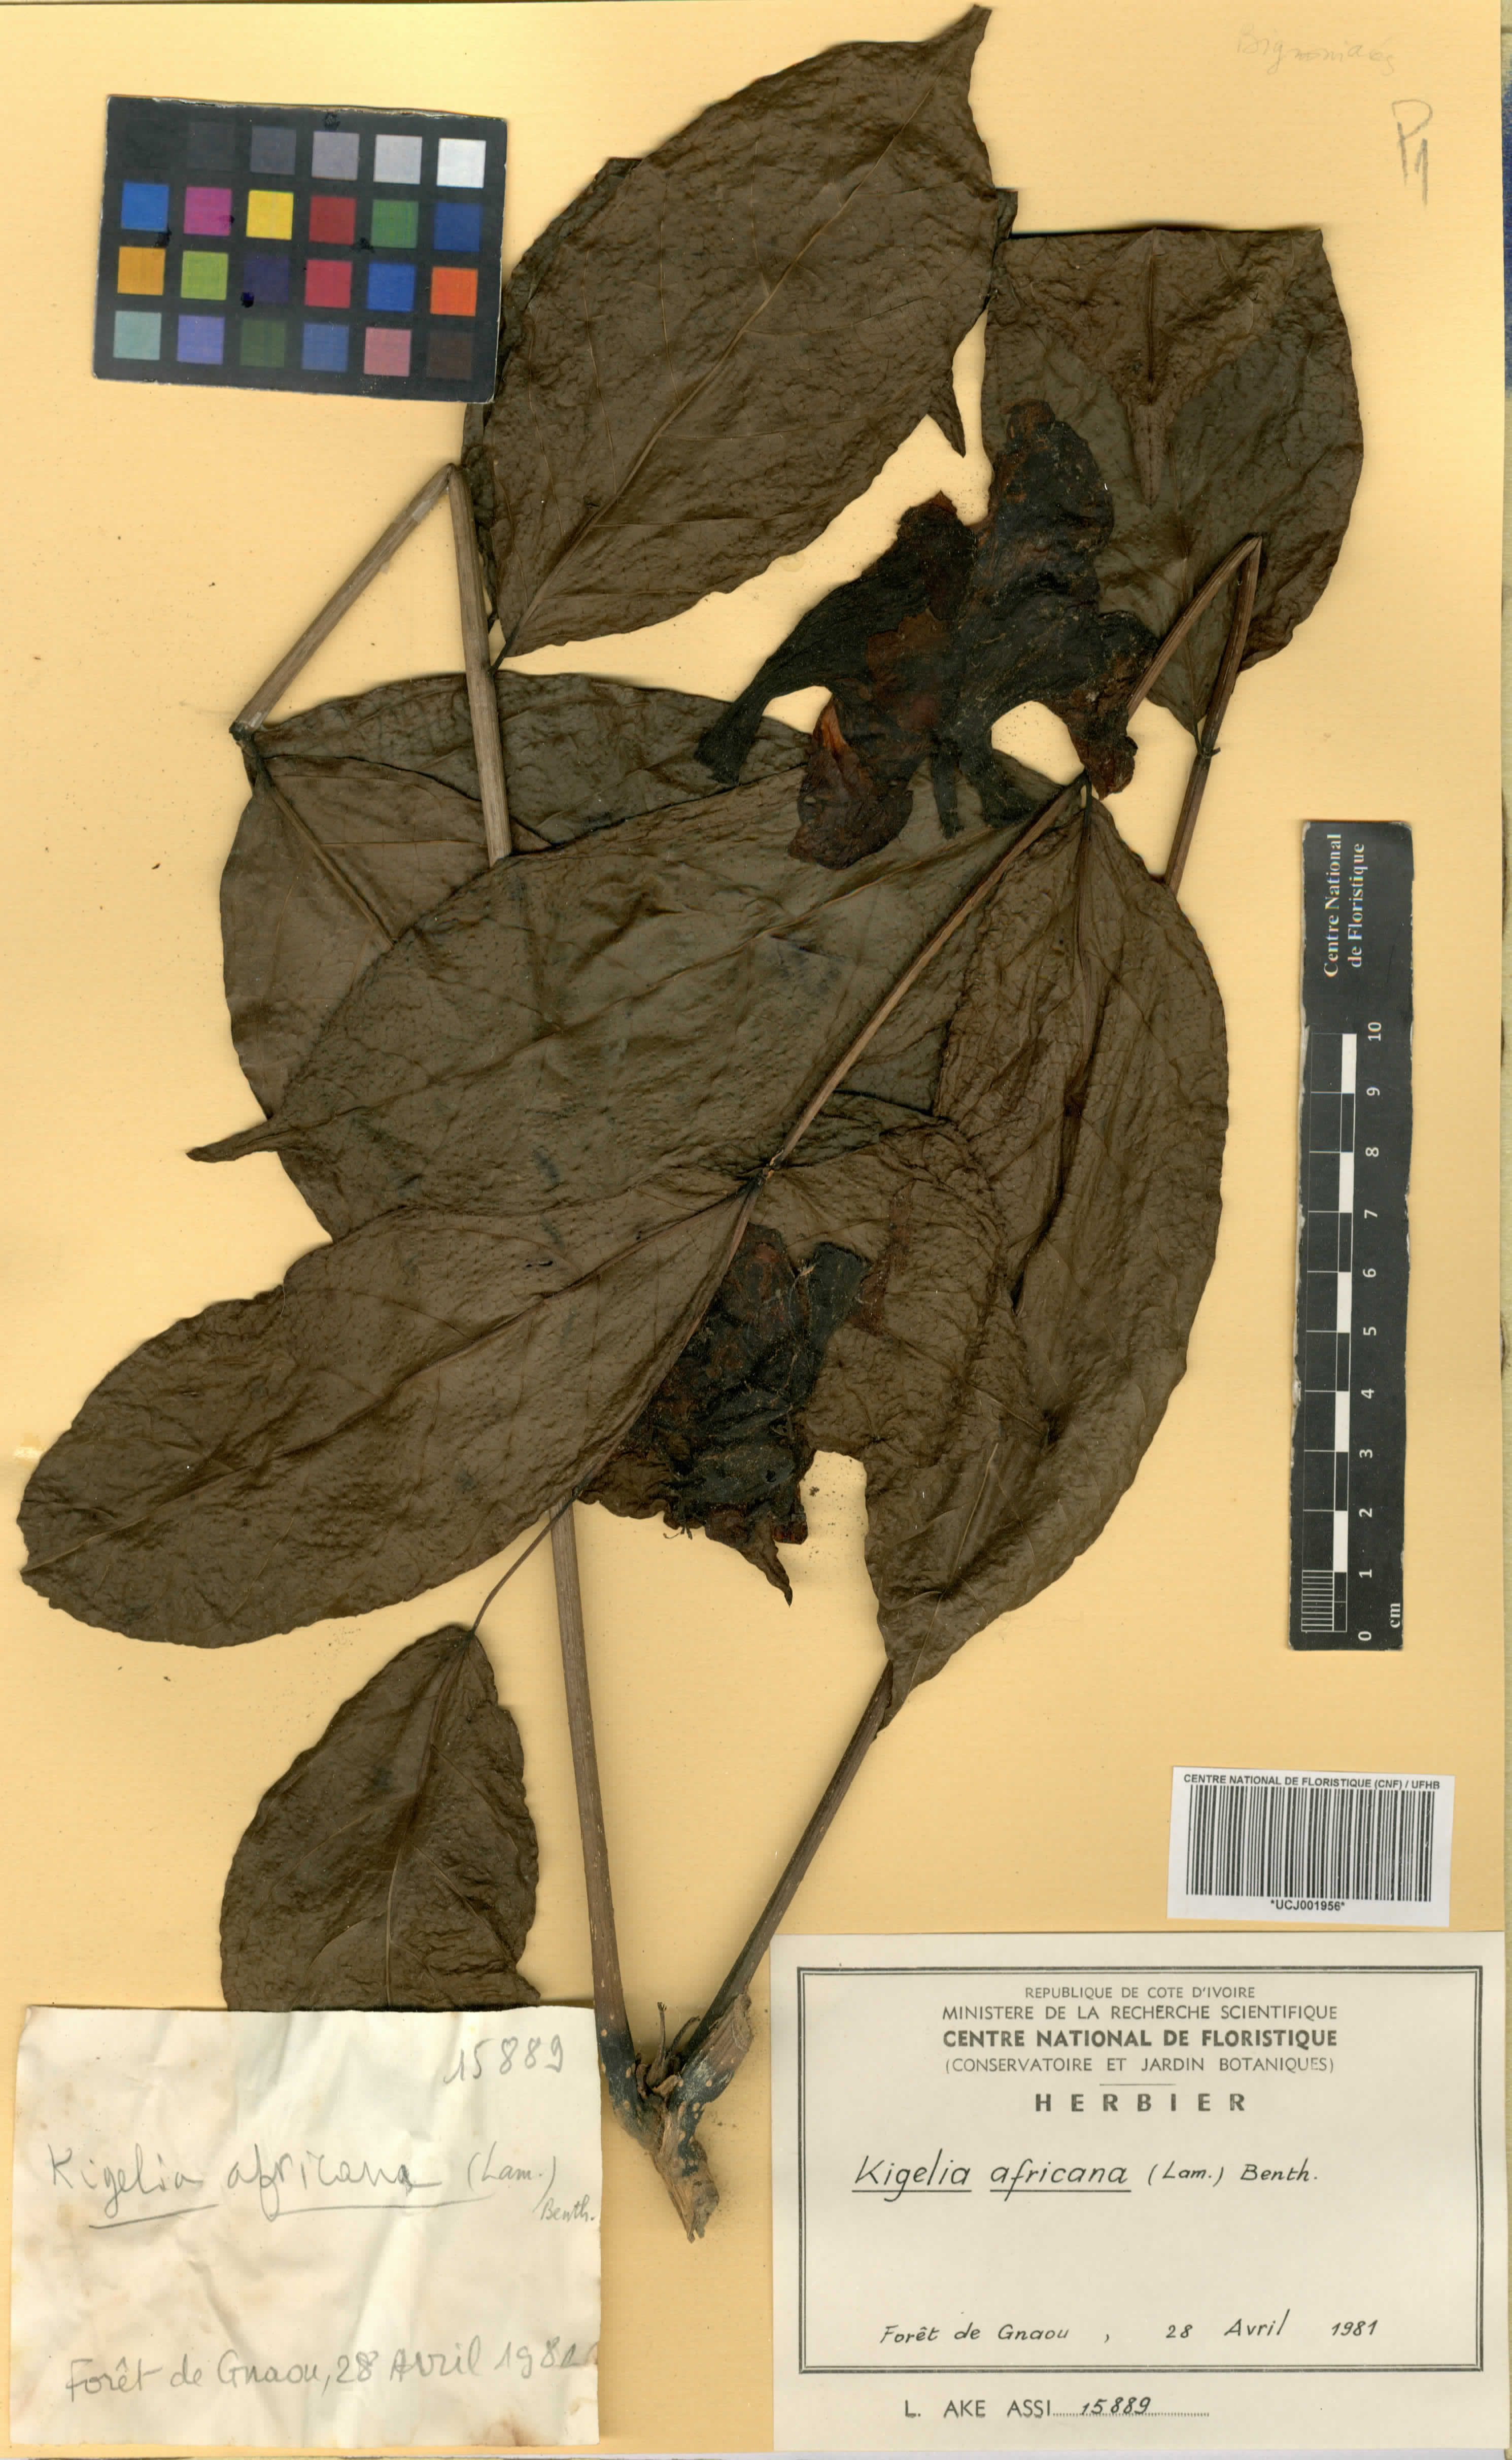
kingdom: Plantae
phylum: Tracheophyta
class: Magnoliopsida
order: Lamiales
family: Bignoniaceae
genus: Kigelia
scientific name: Kigelia africana
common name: Sausage tree
